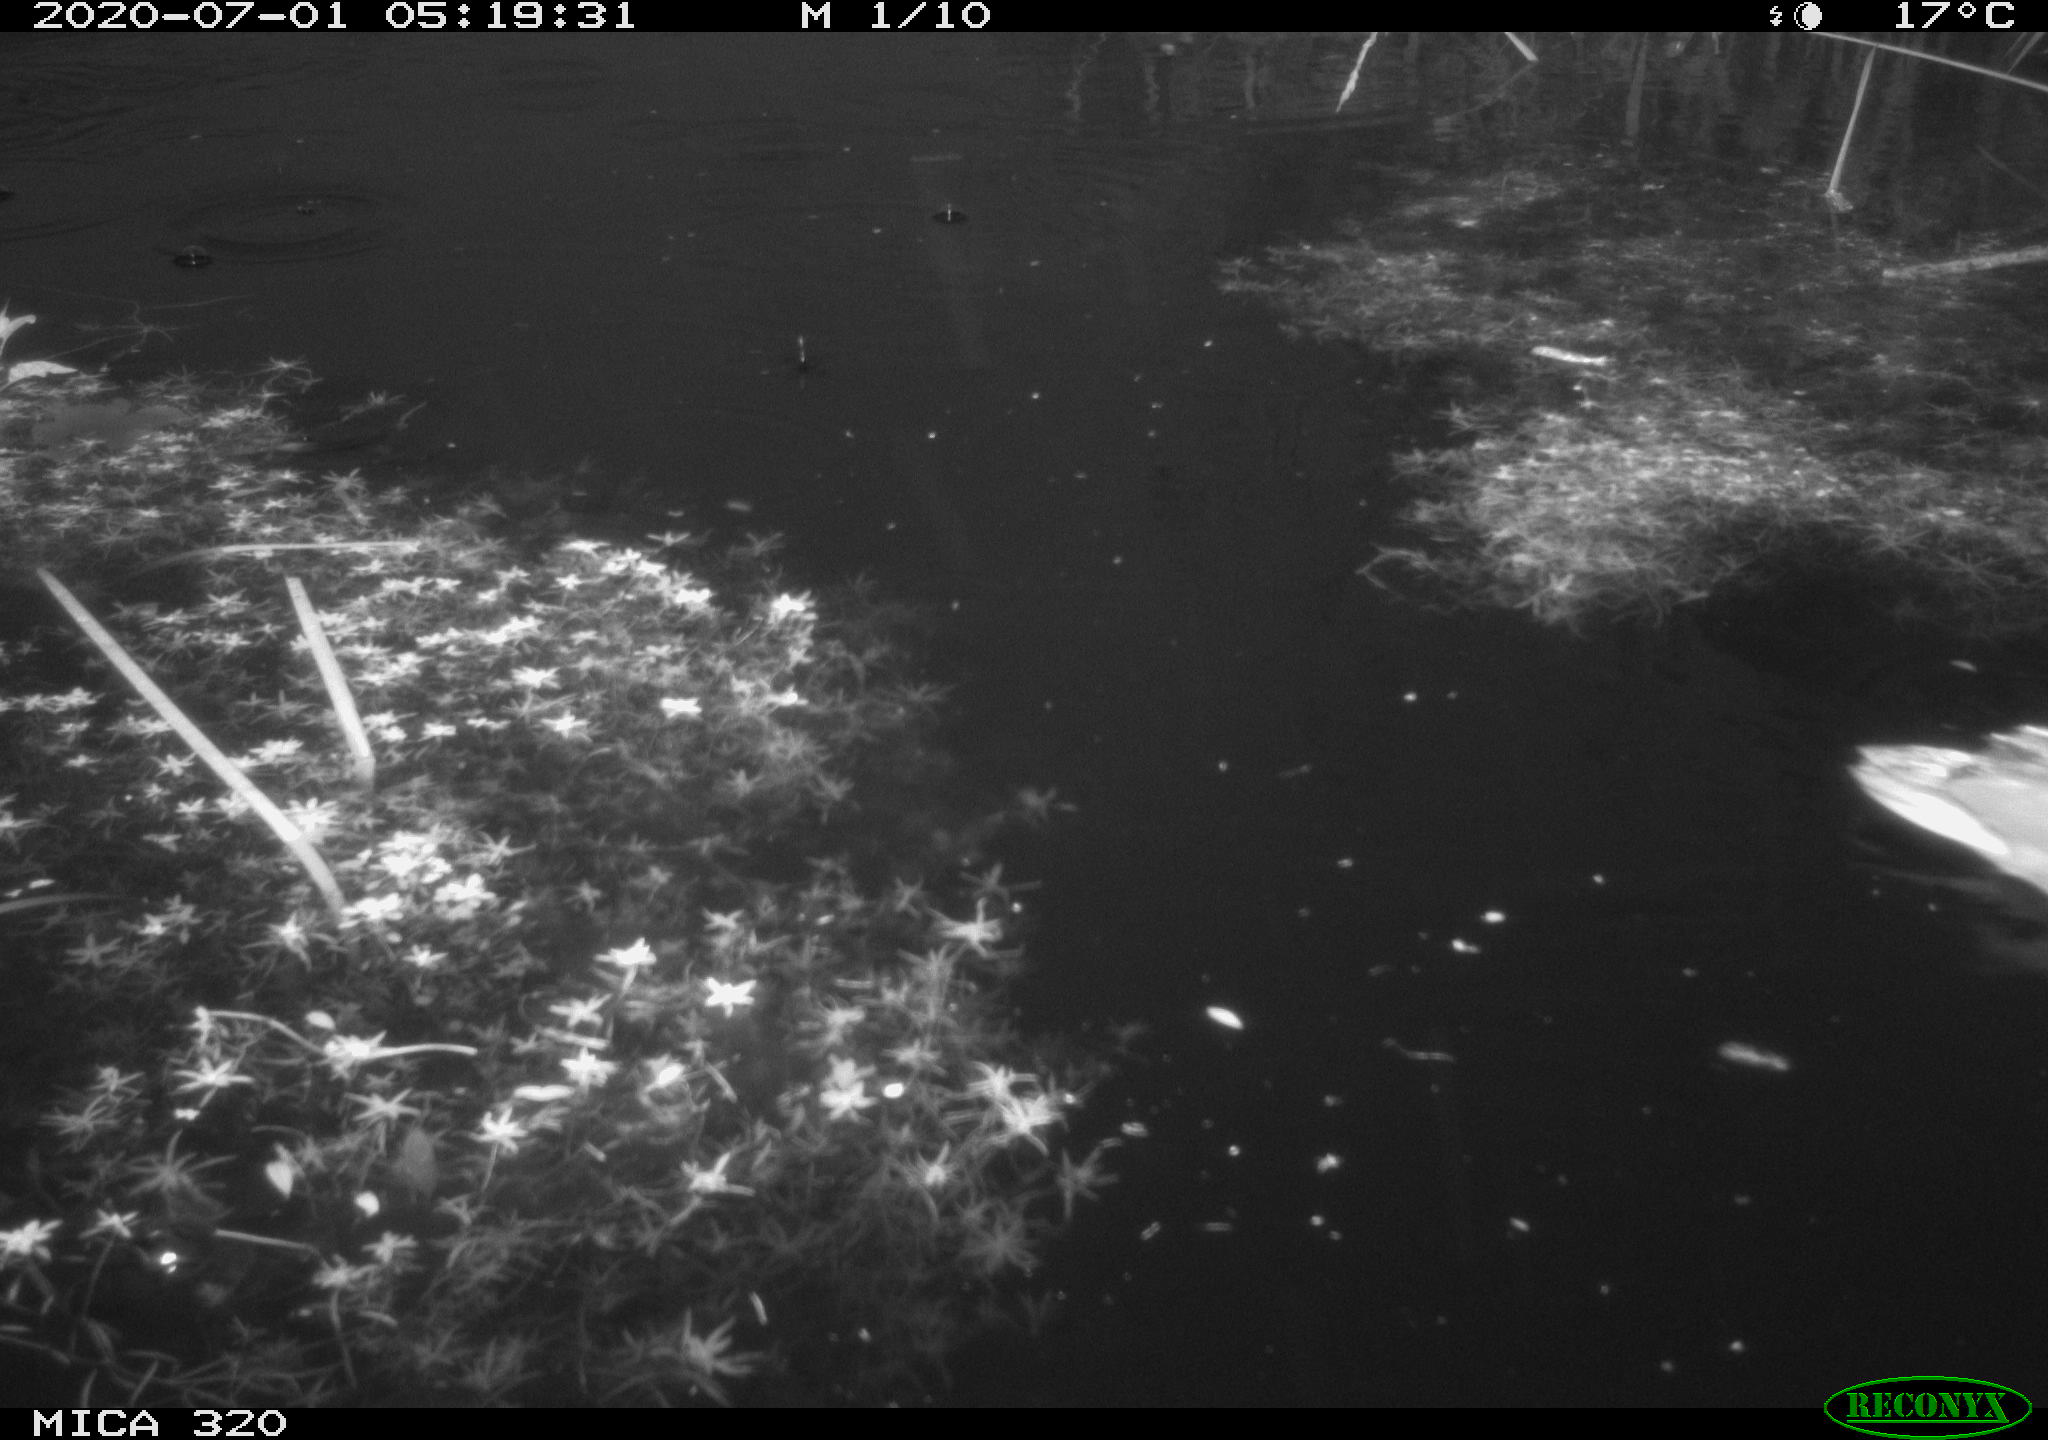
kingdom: Animalia
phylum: Chordata
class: Aves
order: Anseriformes
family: Anatidae
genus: Anas
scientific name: Anas platyrhynchos
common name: Mallard
